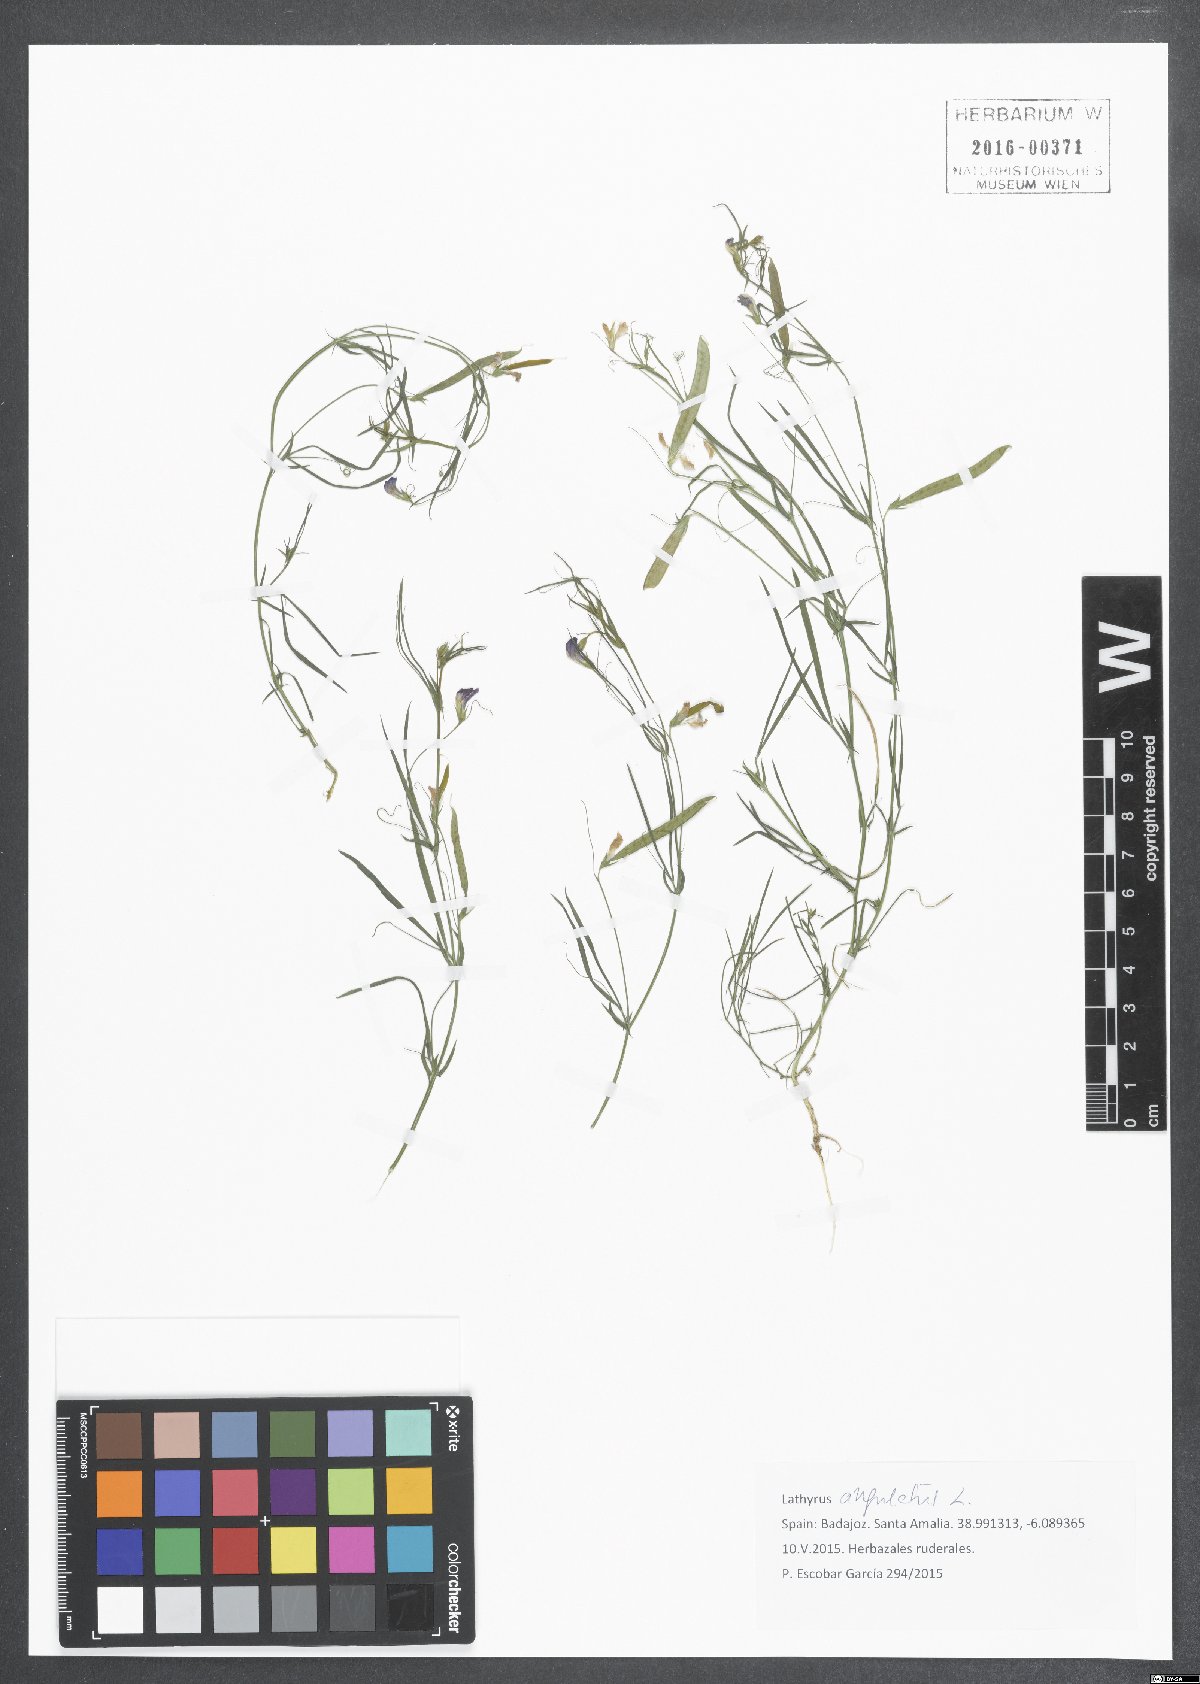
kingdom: Plantae
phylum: Tracheophyta
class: Magnoliopsida
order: Fabales
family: Fabaceae
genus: Lathyrus
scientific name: Lathyrus angulatus
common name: Angular pea
